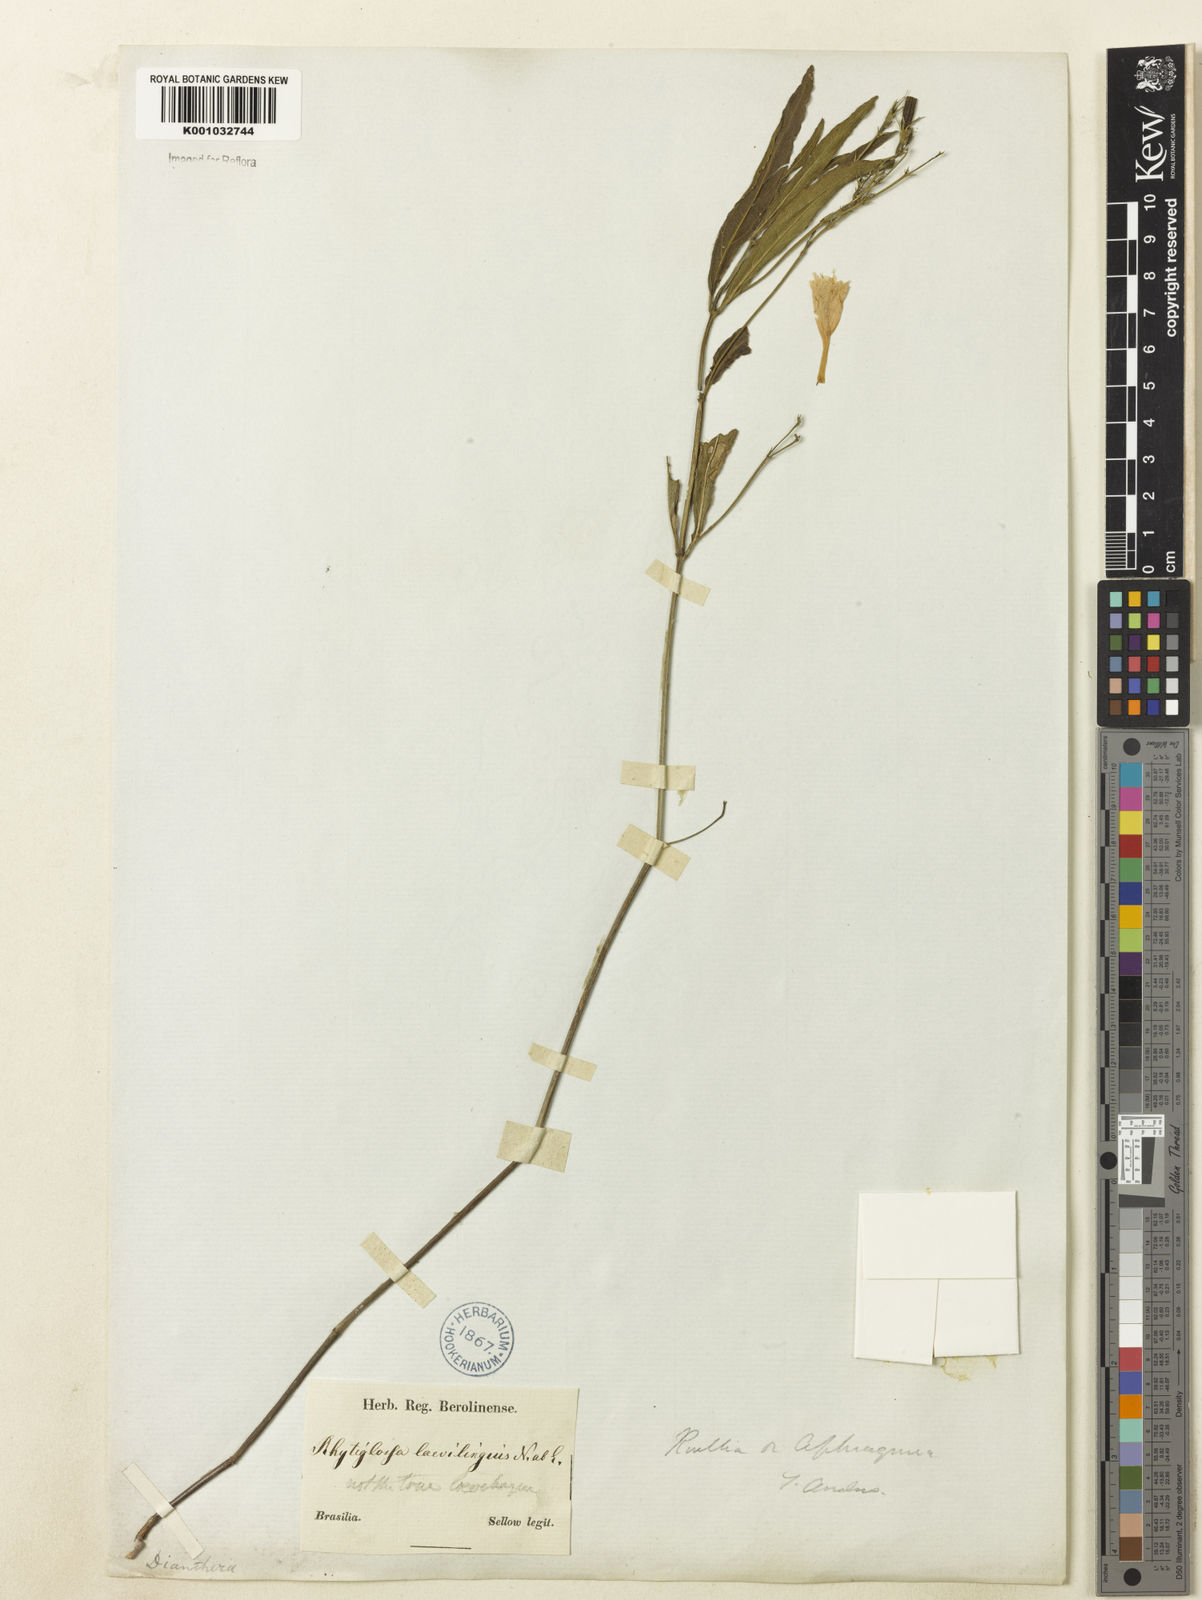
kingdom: Plantae
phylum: Tracheophyta
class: Magnoliopsida
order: Lamiales
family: Acanthaceae
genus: Ruellia
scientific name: Ruellia
